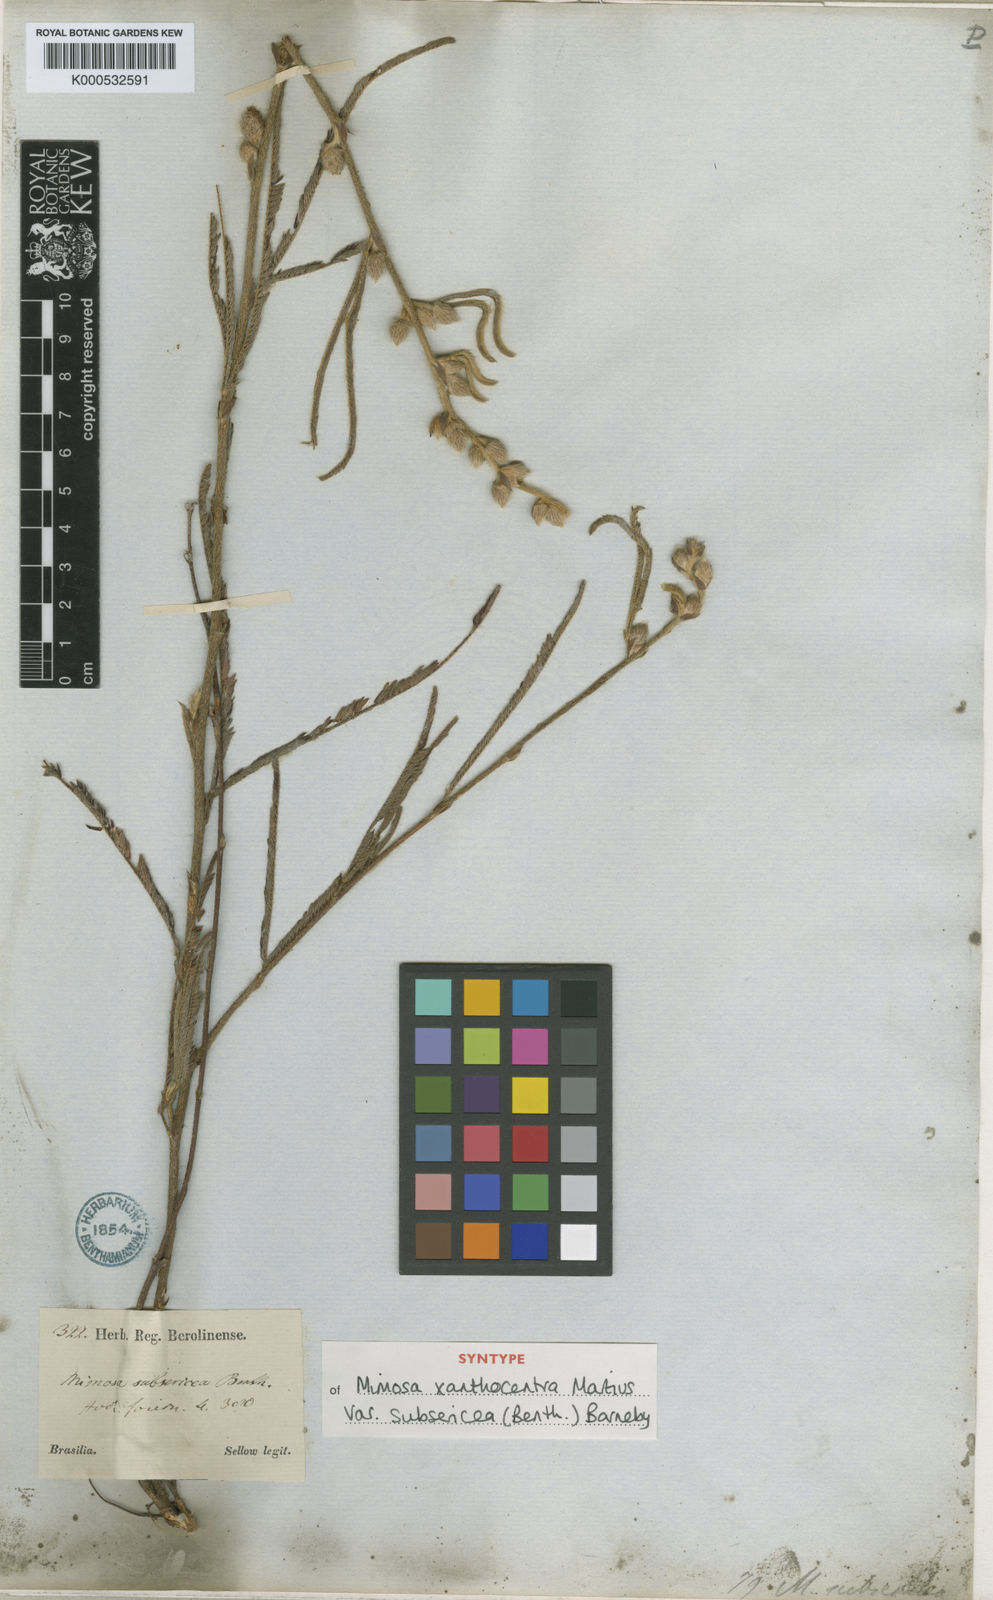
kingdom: Plantae
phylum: Tracheophyta
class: Magnoliopsida
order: Fabales
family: Fabaceae
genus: Mimosa
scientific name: Mimosa xanthocentra
